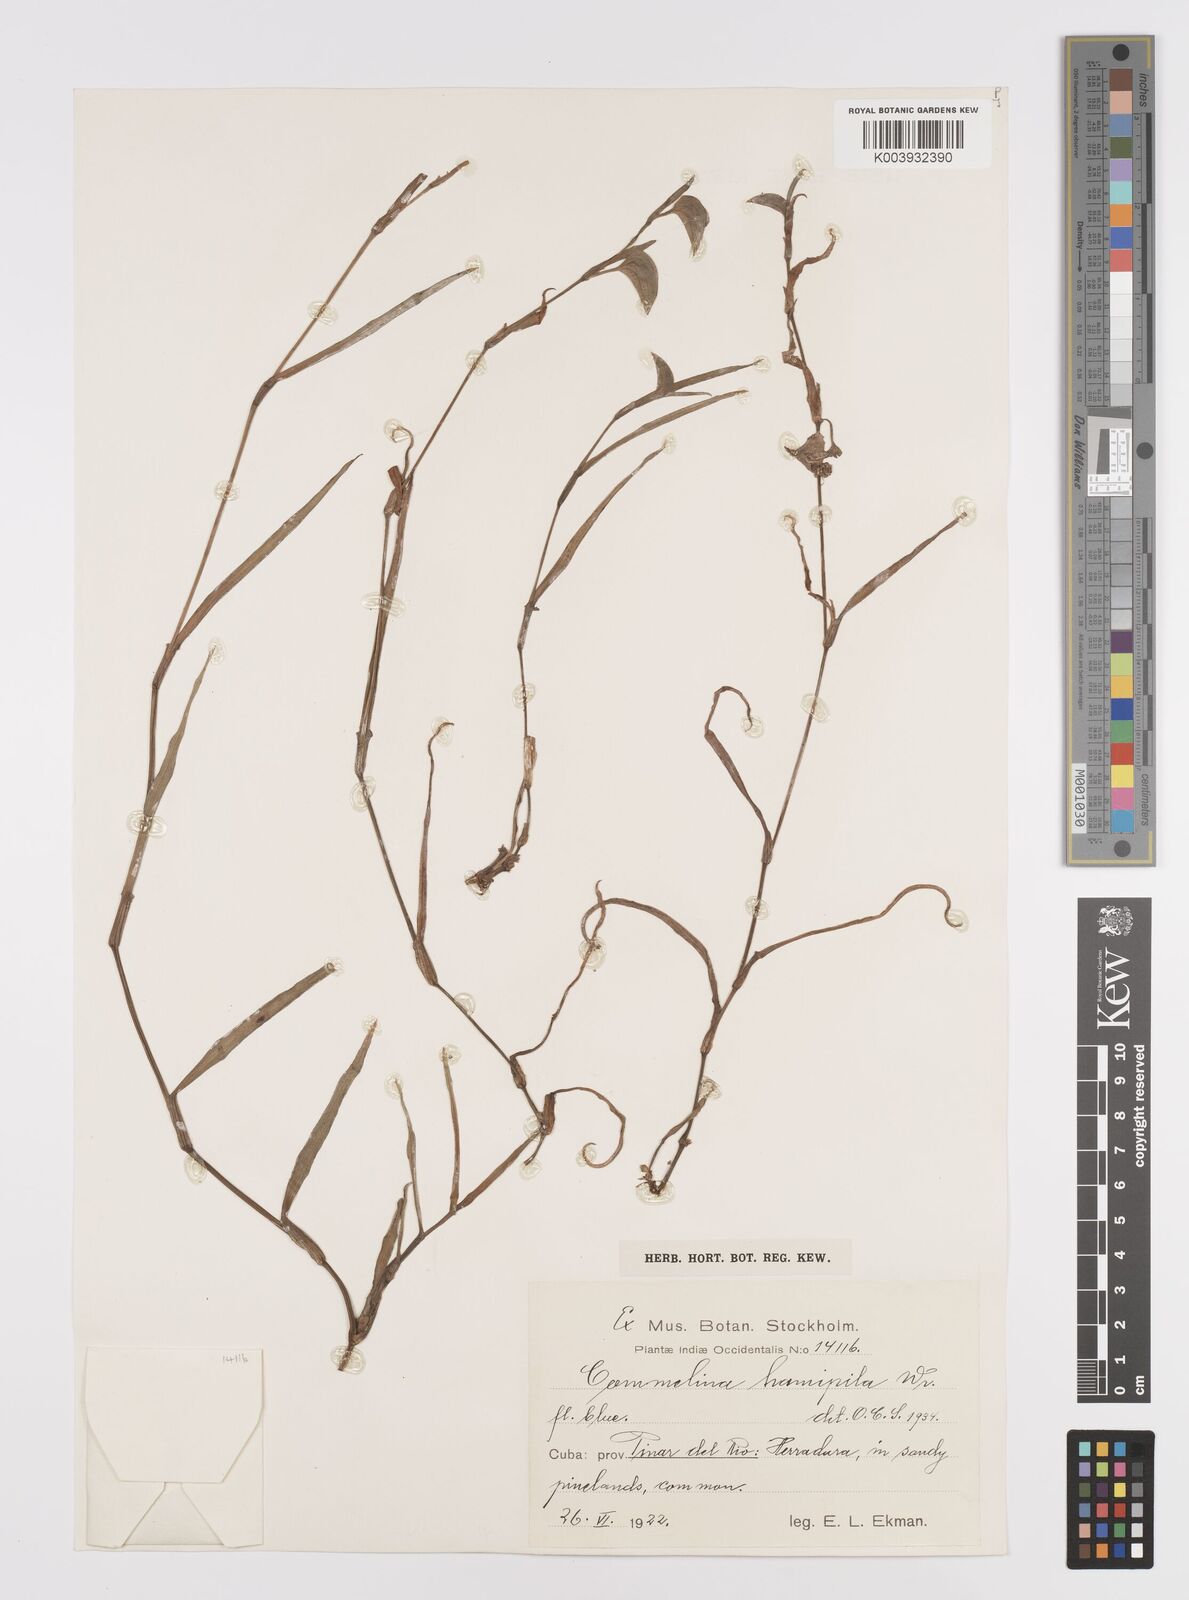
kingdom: Plantae
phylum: Tracheophyta
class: Liliopsida
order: Commelinales
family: Commelinaceae
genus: Commelina
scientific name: Commelina erecta
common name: Blousel blommetjie
